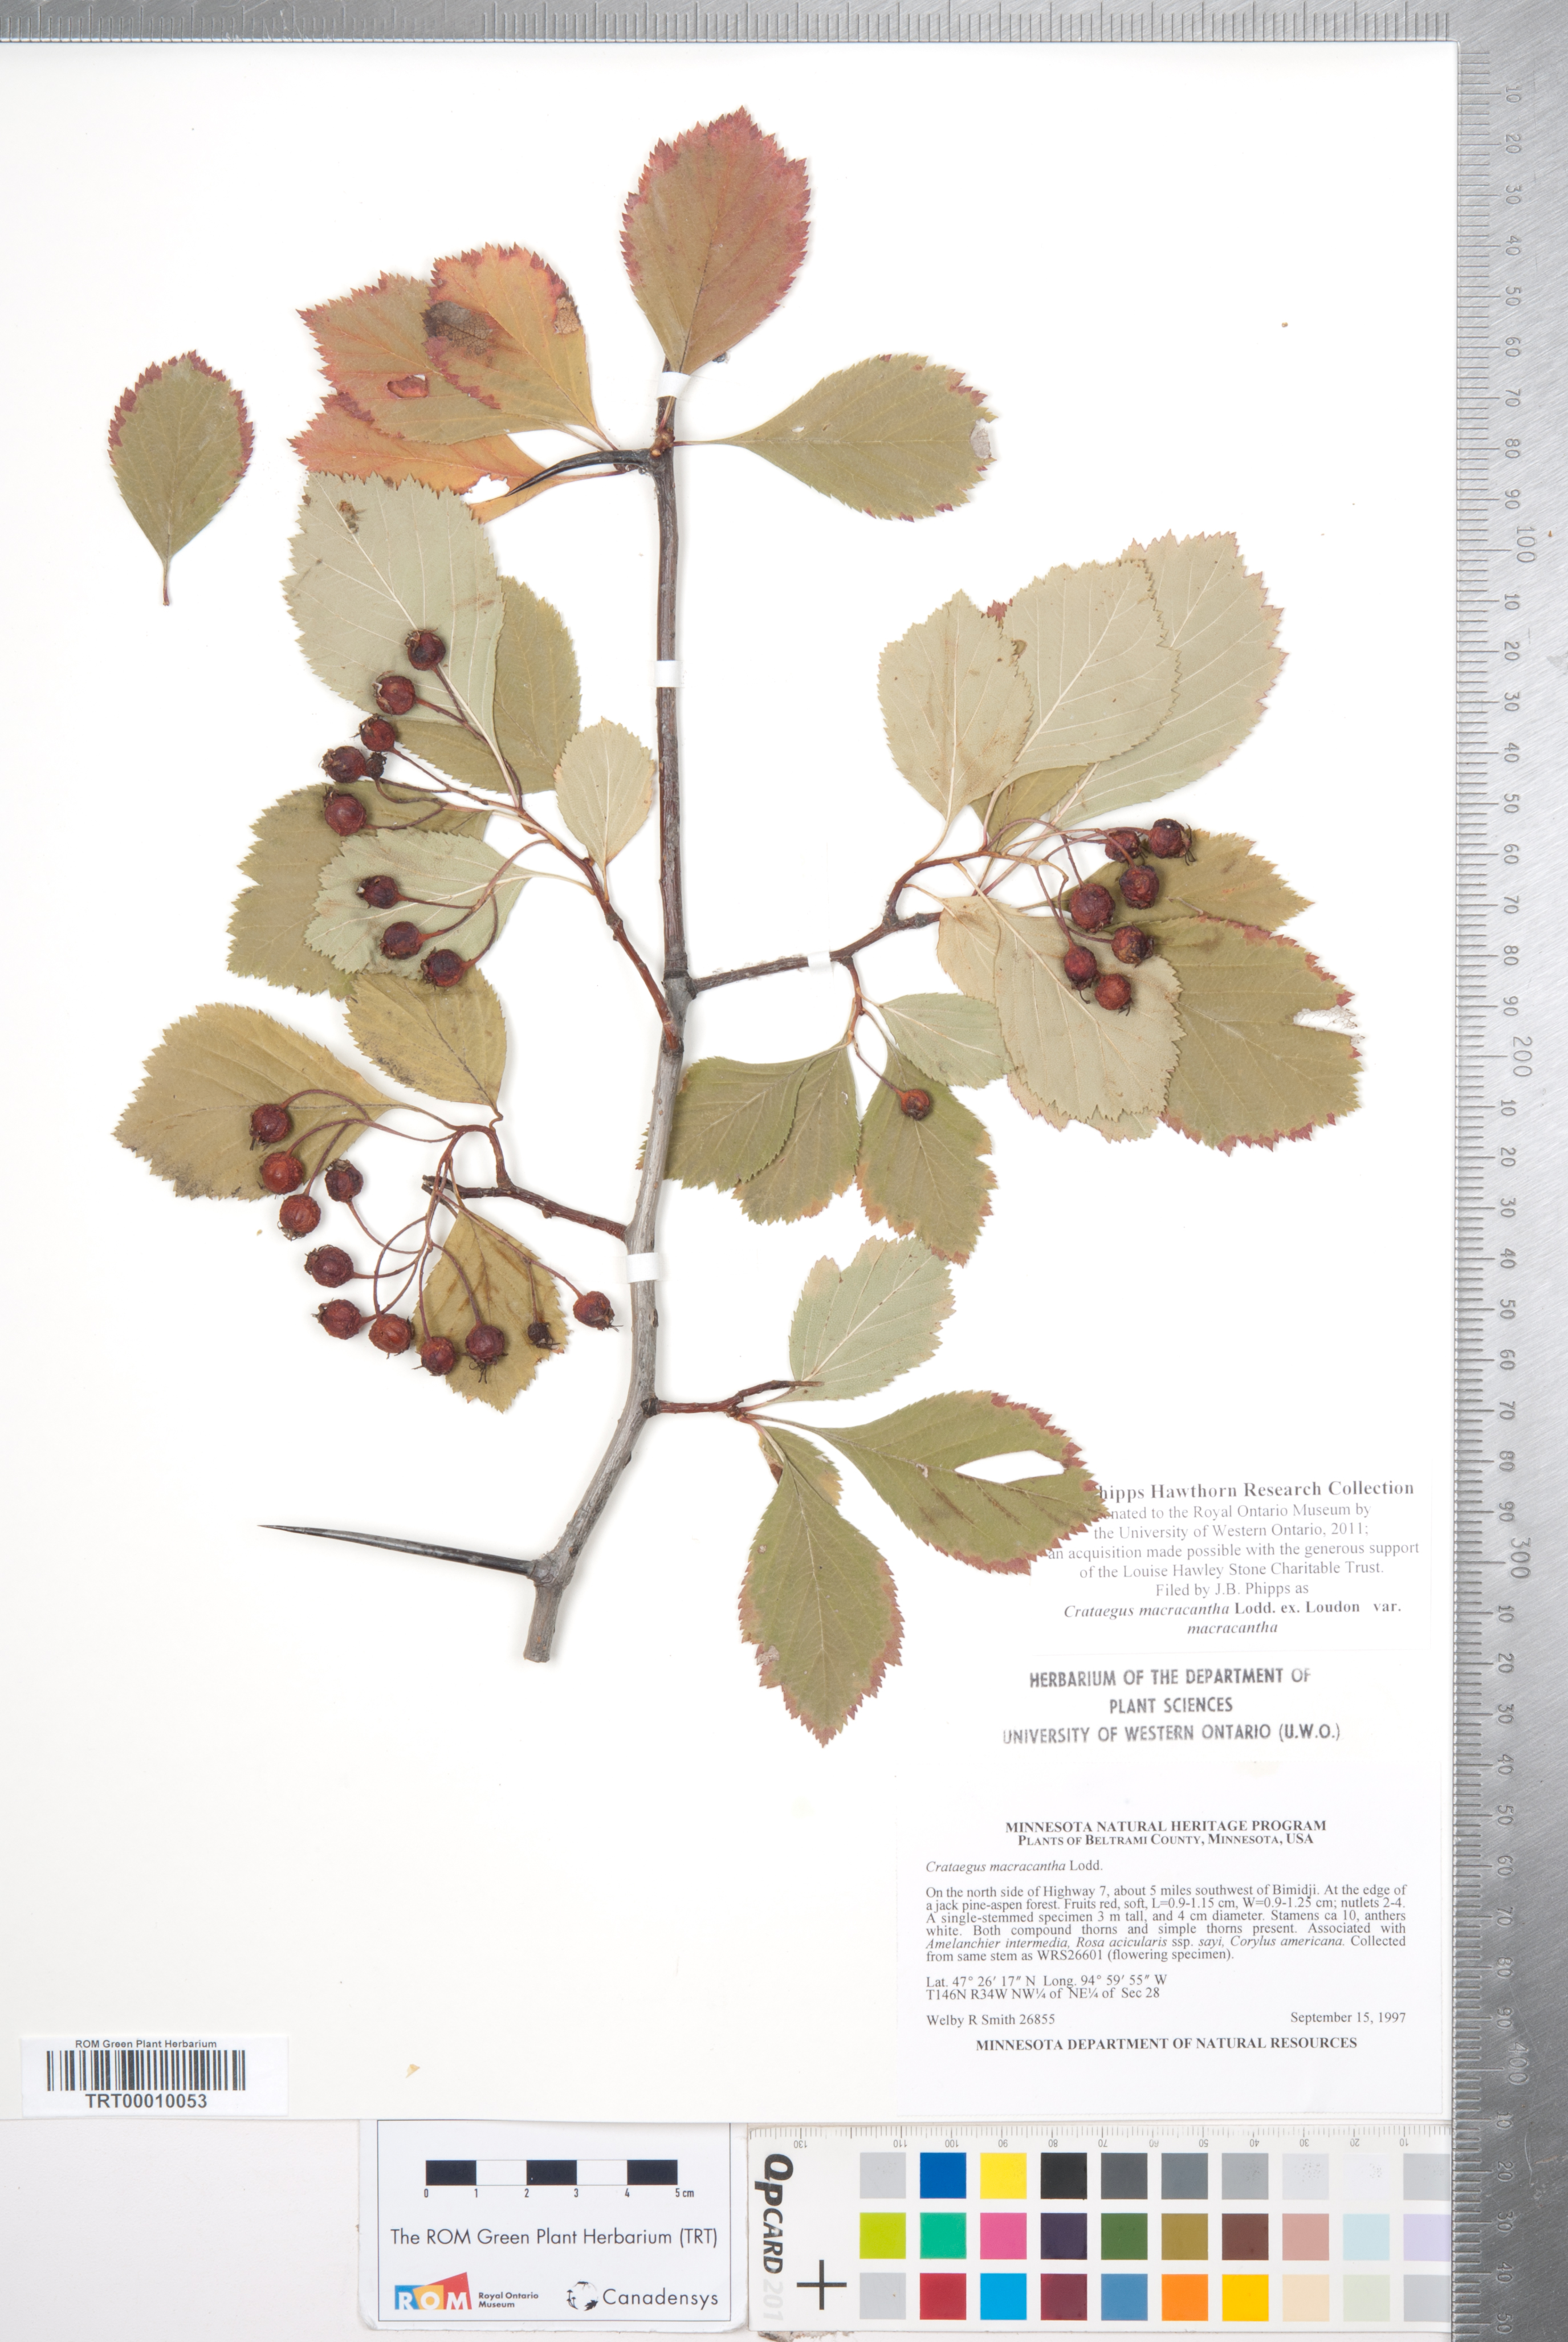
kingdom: Plantae
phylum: Tracheophyta
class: Magnoliopsida
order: Rosales
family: Rosaceae
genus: Crataegus
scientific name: Crataegus macracantha
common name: Large-thorn hawthorn
